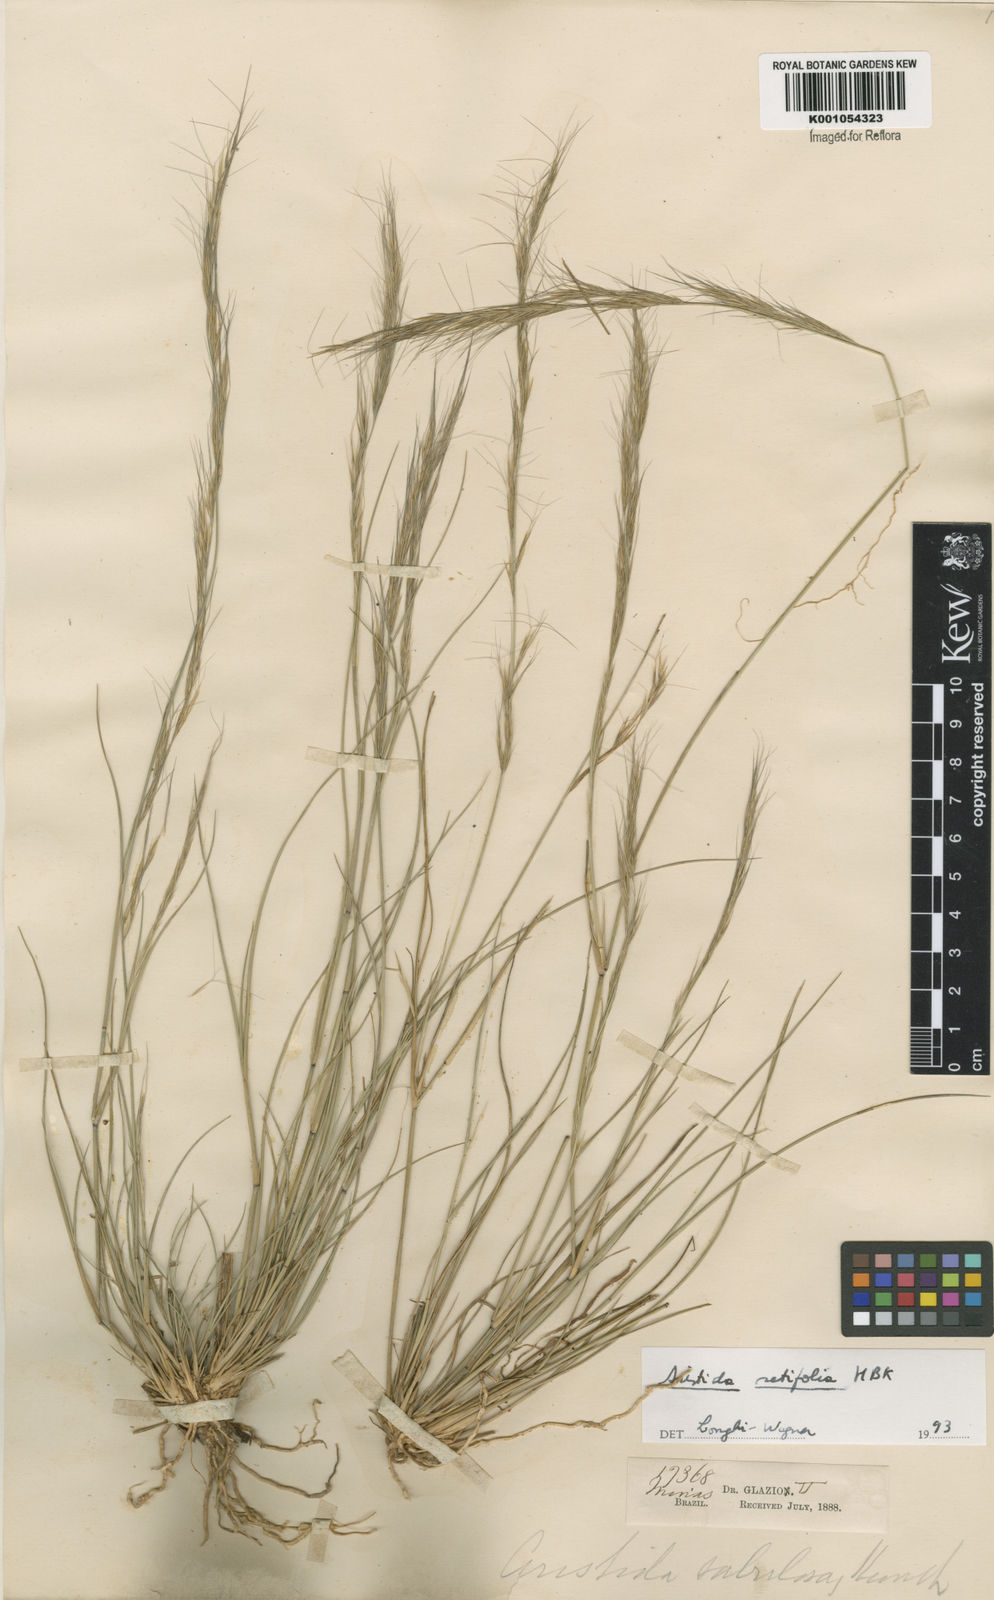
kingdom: Plantae
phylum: Tracheophyta
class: Liliopsida
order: Poales
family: Poaceae
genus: Aristida
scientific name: Aristida setifolia
